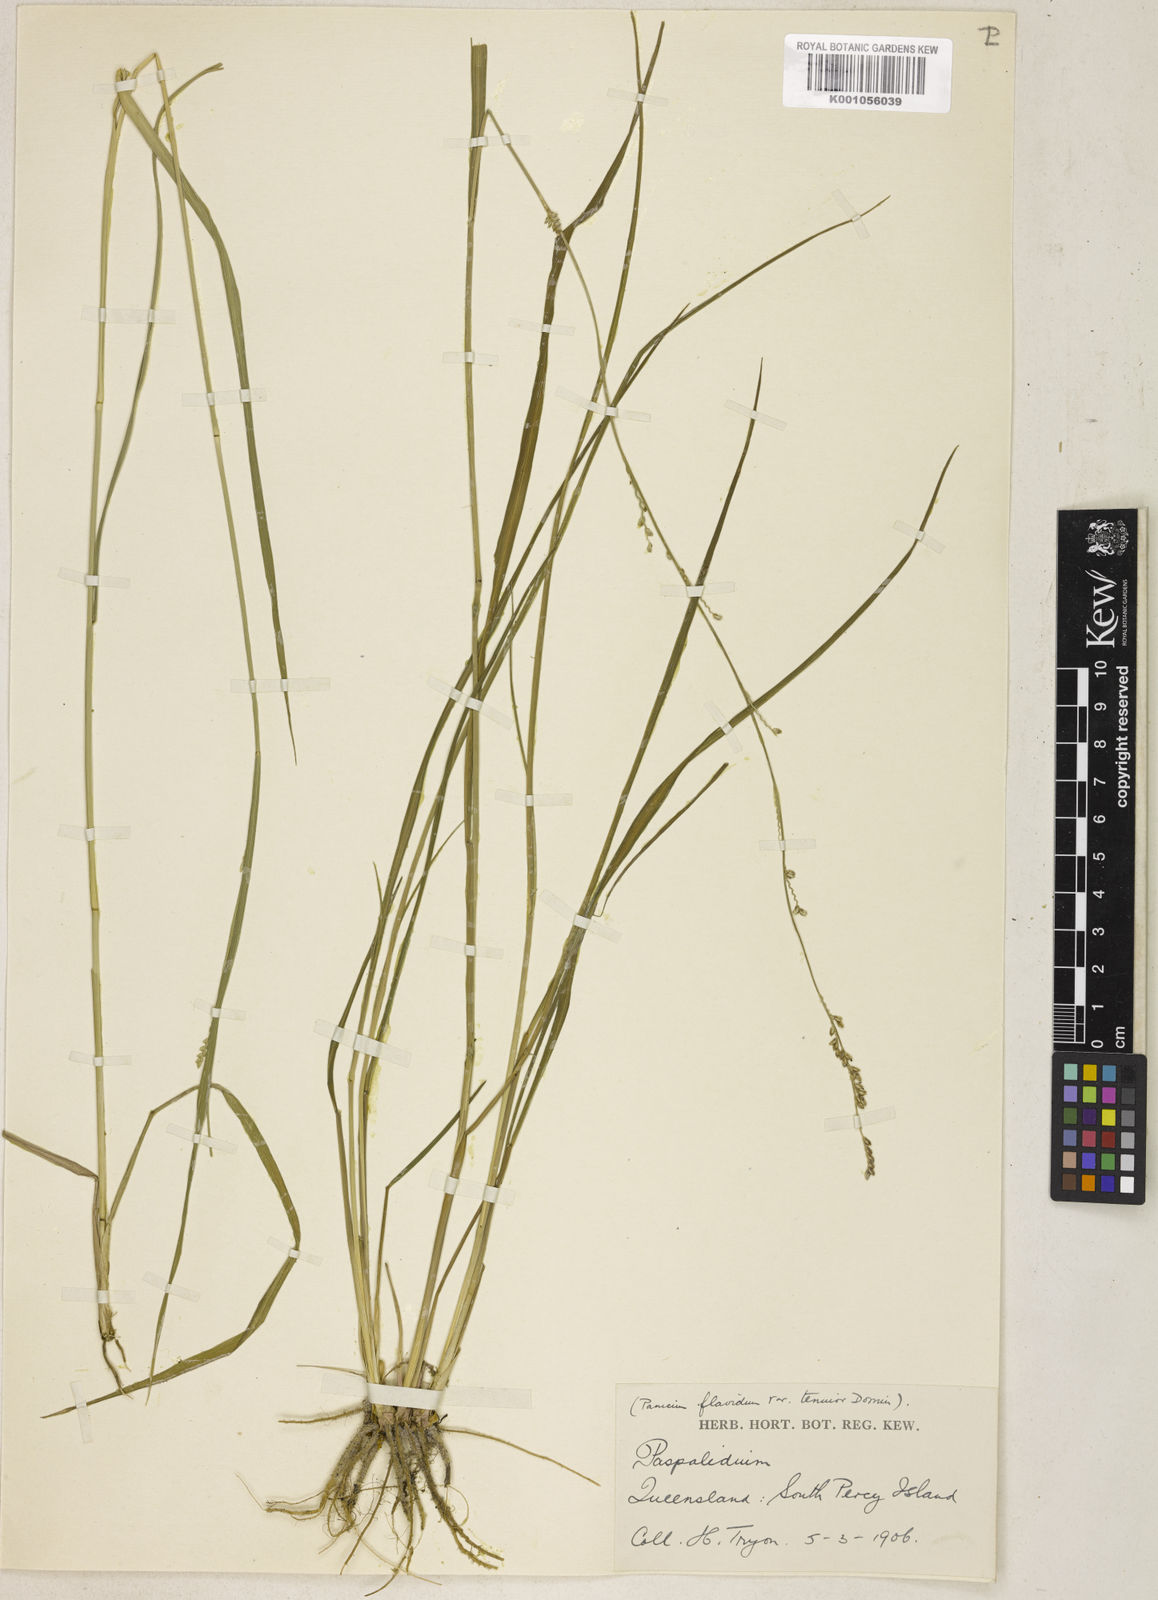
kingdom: Plantae
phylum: Tracheophyta
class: Liliopsida
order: Poales
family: Poaceae
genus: Setaria
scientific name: Setaria flavida
